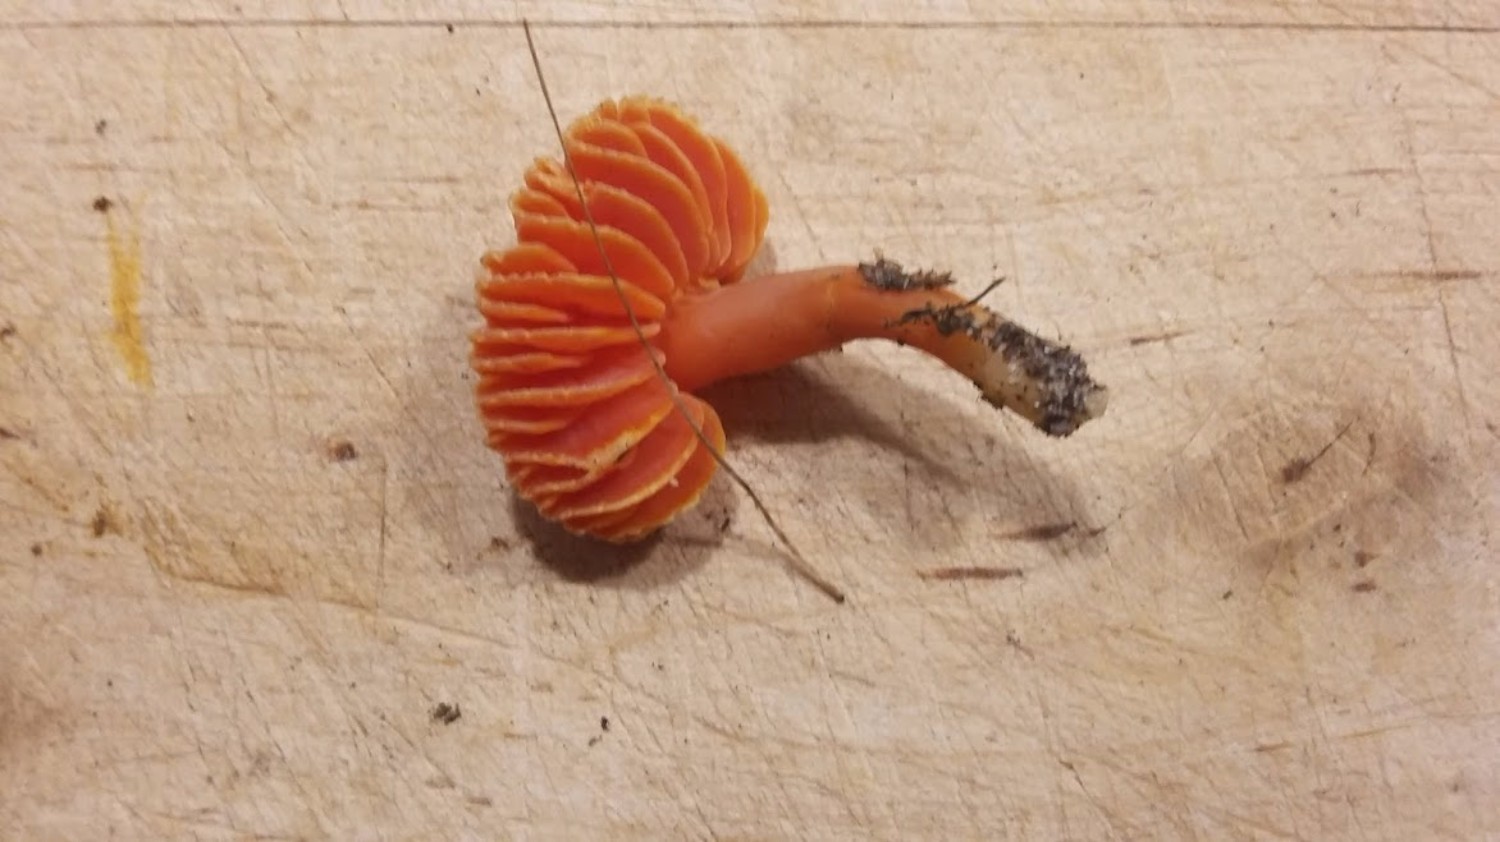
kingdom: Fungi
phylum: Basidiomycota
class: Agaricomycetes
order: Agaricales
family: Hygrophoraceae
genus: Hygrocybe
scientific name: Hygrocybe miniata
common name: mønje-vokshat
